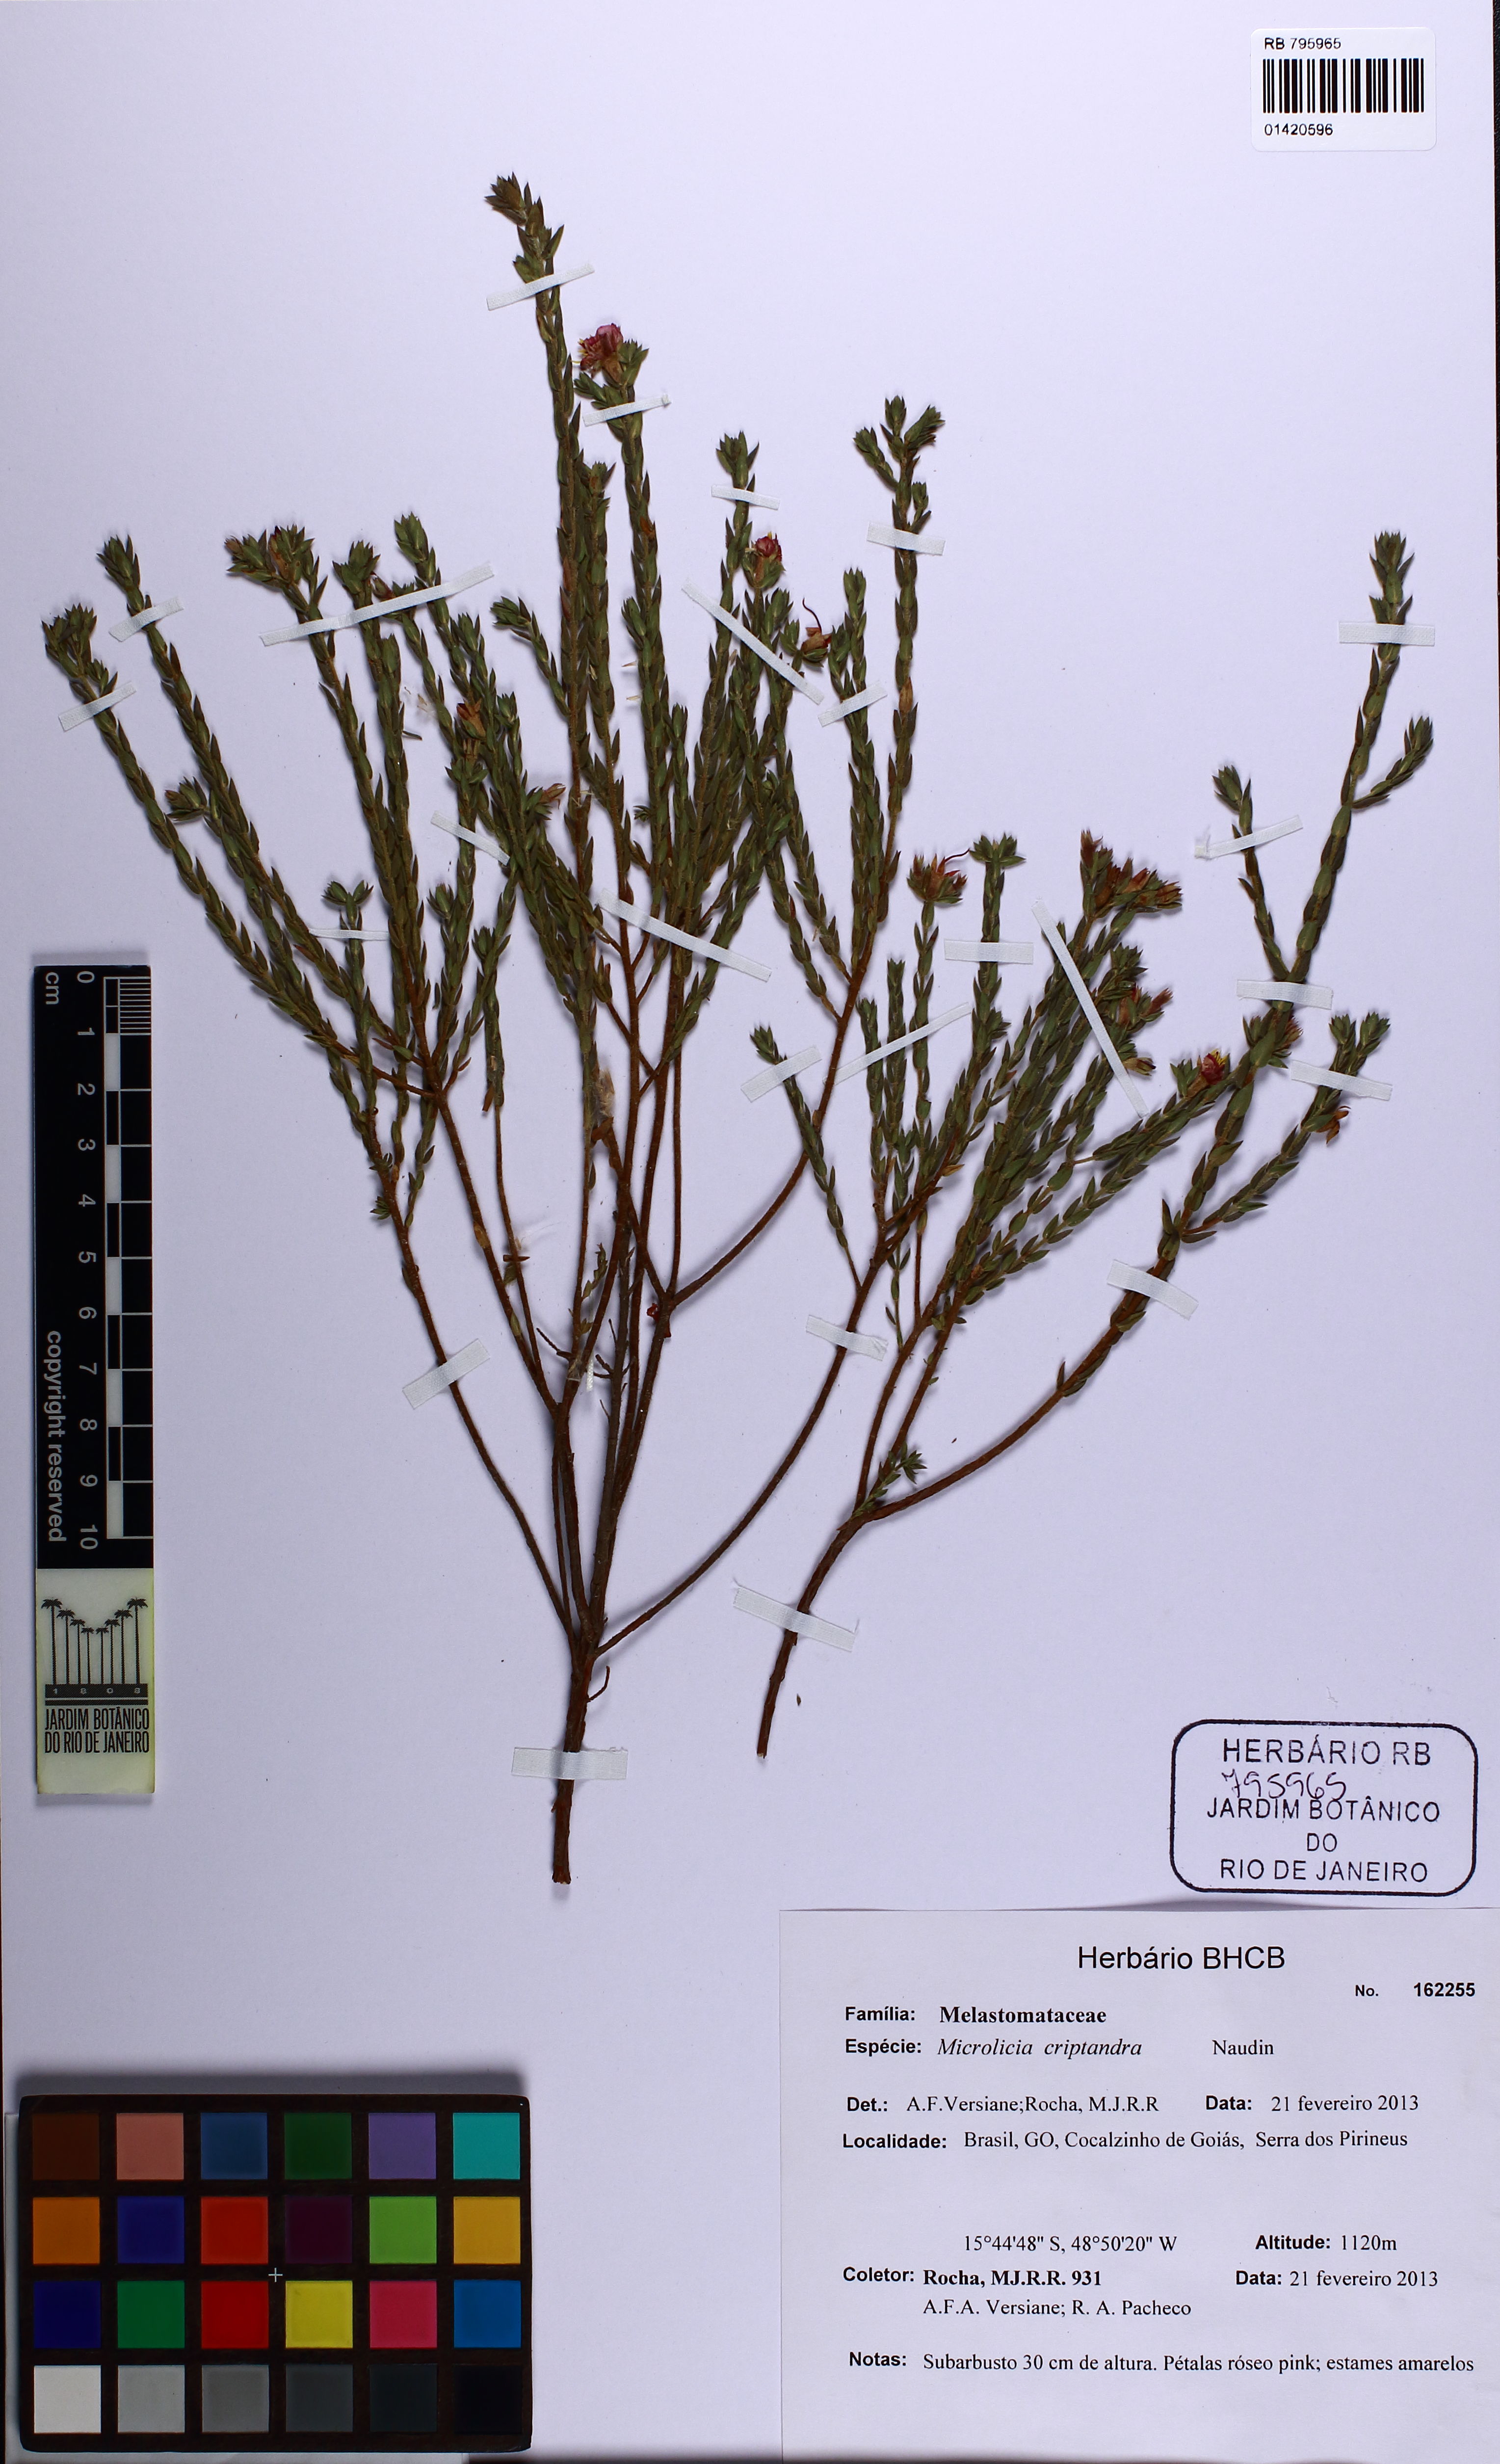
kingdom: Plantae
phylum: Tracheophyta
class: Magnoliopsida
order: Myrtales
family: Melastomataceae
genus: Microlicia
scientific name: Microlicia cryptandra
